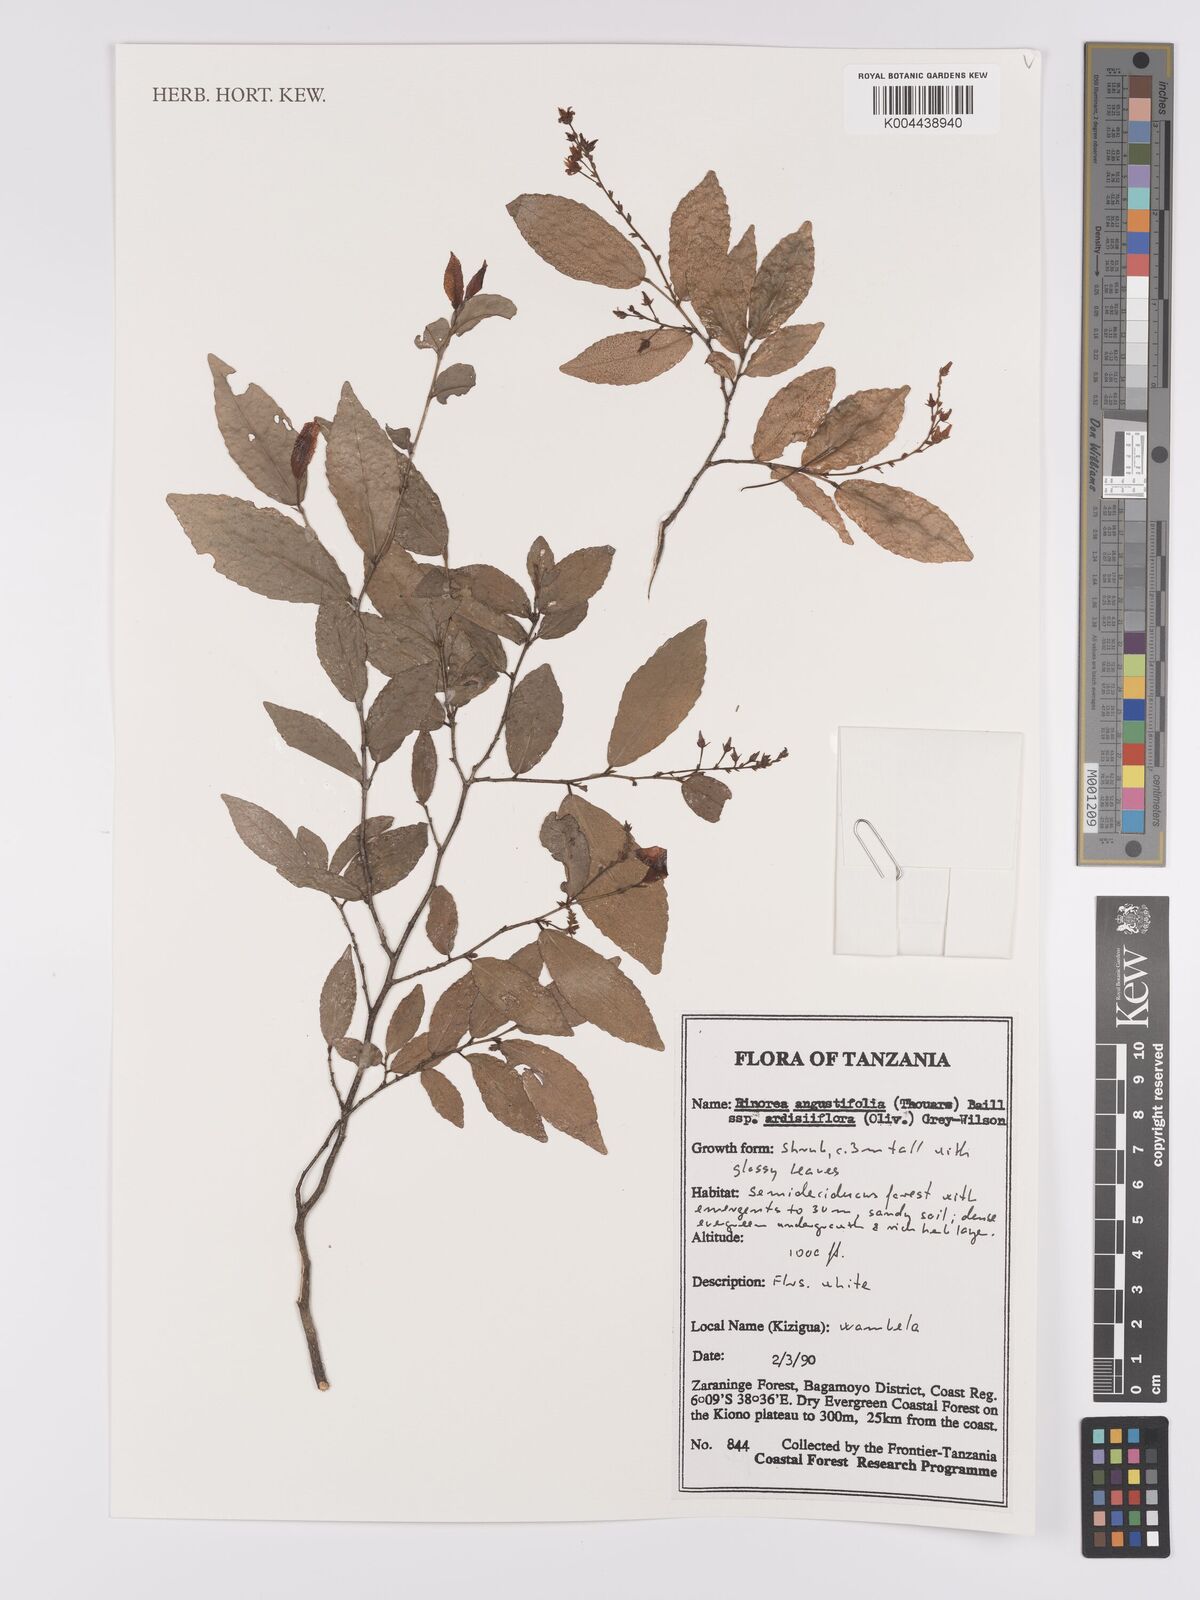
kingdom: Plantae
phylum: Tracheophyta
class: Magnoliopsida
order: Malpighiales
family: Violaceae
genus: Rinorea
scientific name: Rinorea angustifolia
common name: White violet-bush
